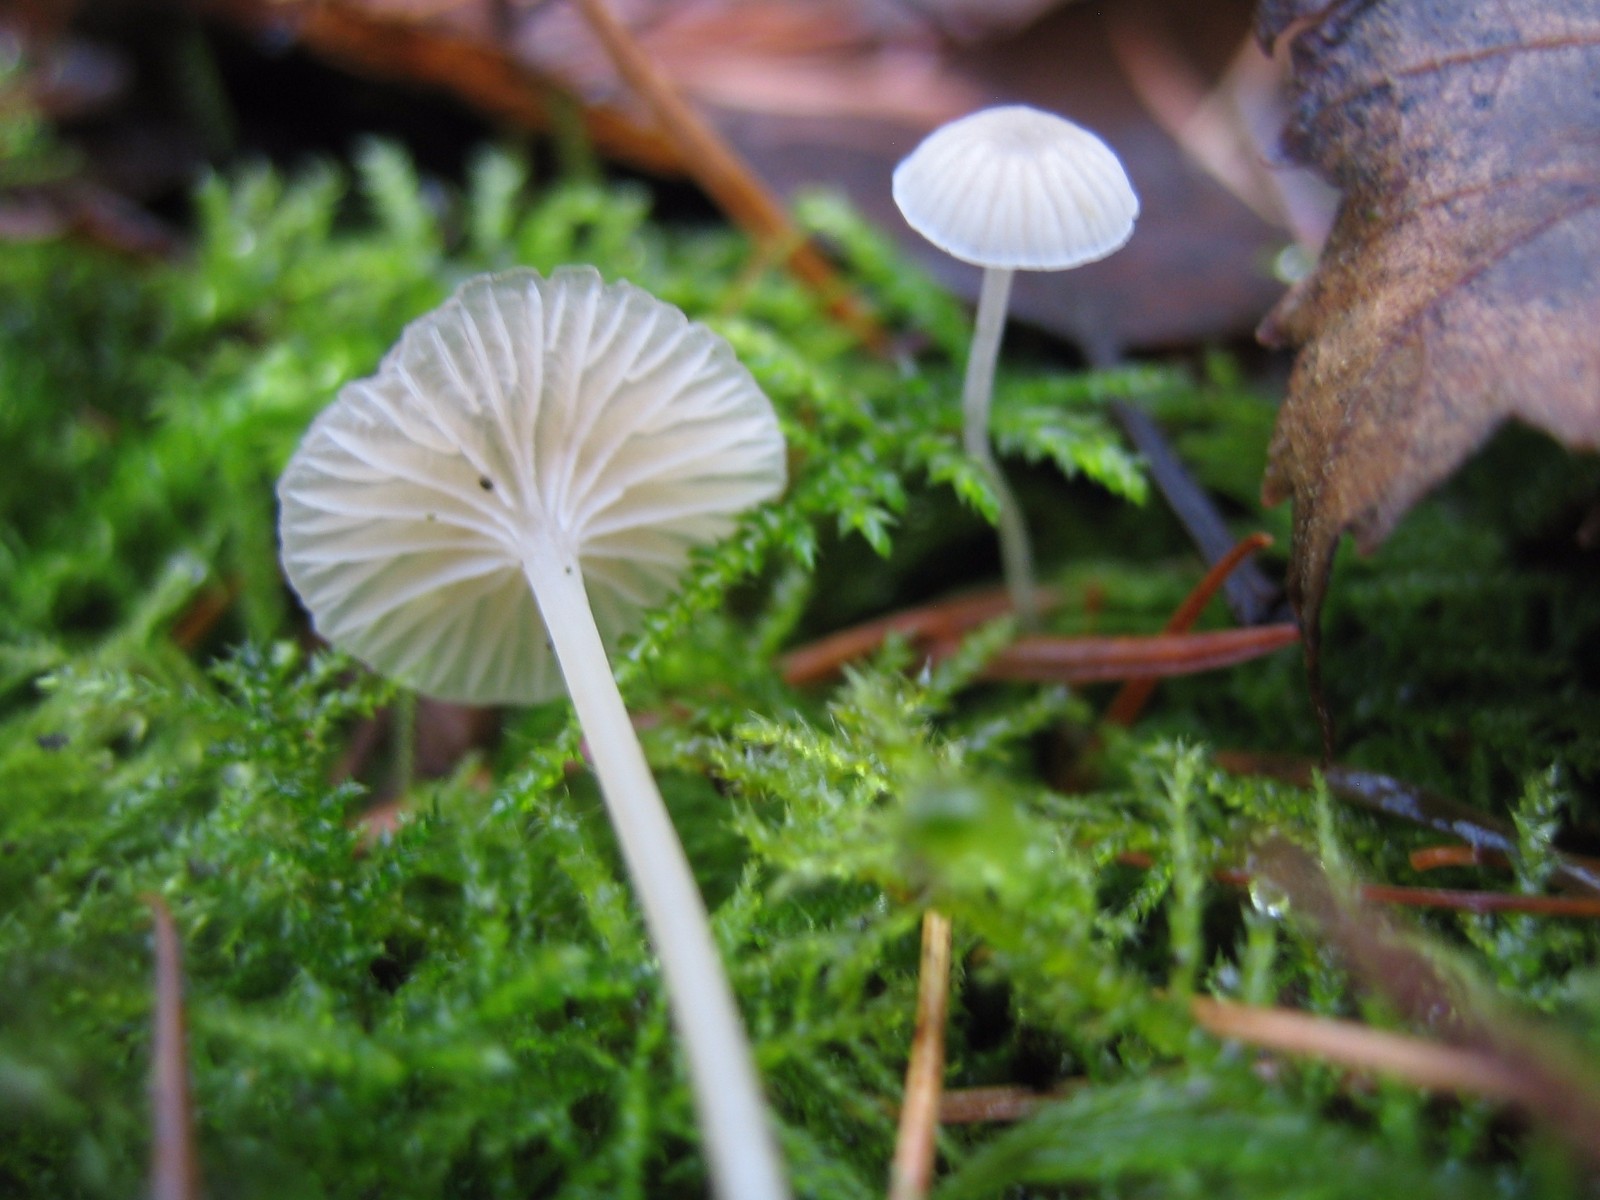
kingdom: Fungi
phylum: Basidiomycota
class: Agaricomycetes
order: Agaricales
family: Mycenaceae
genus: Mycena
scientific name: Mycena
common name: huesvamp
